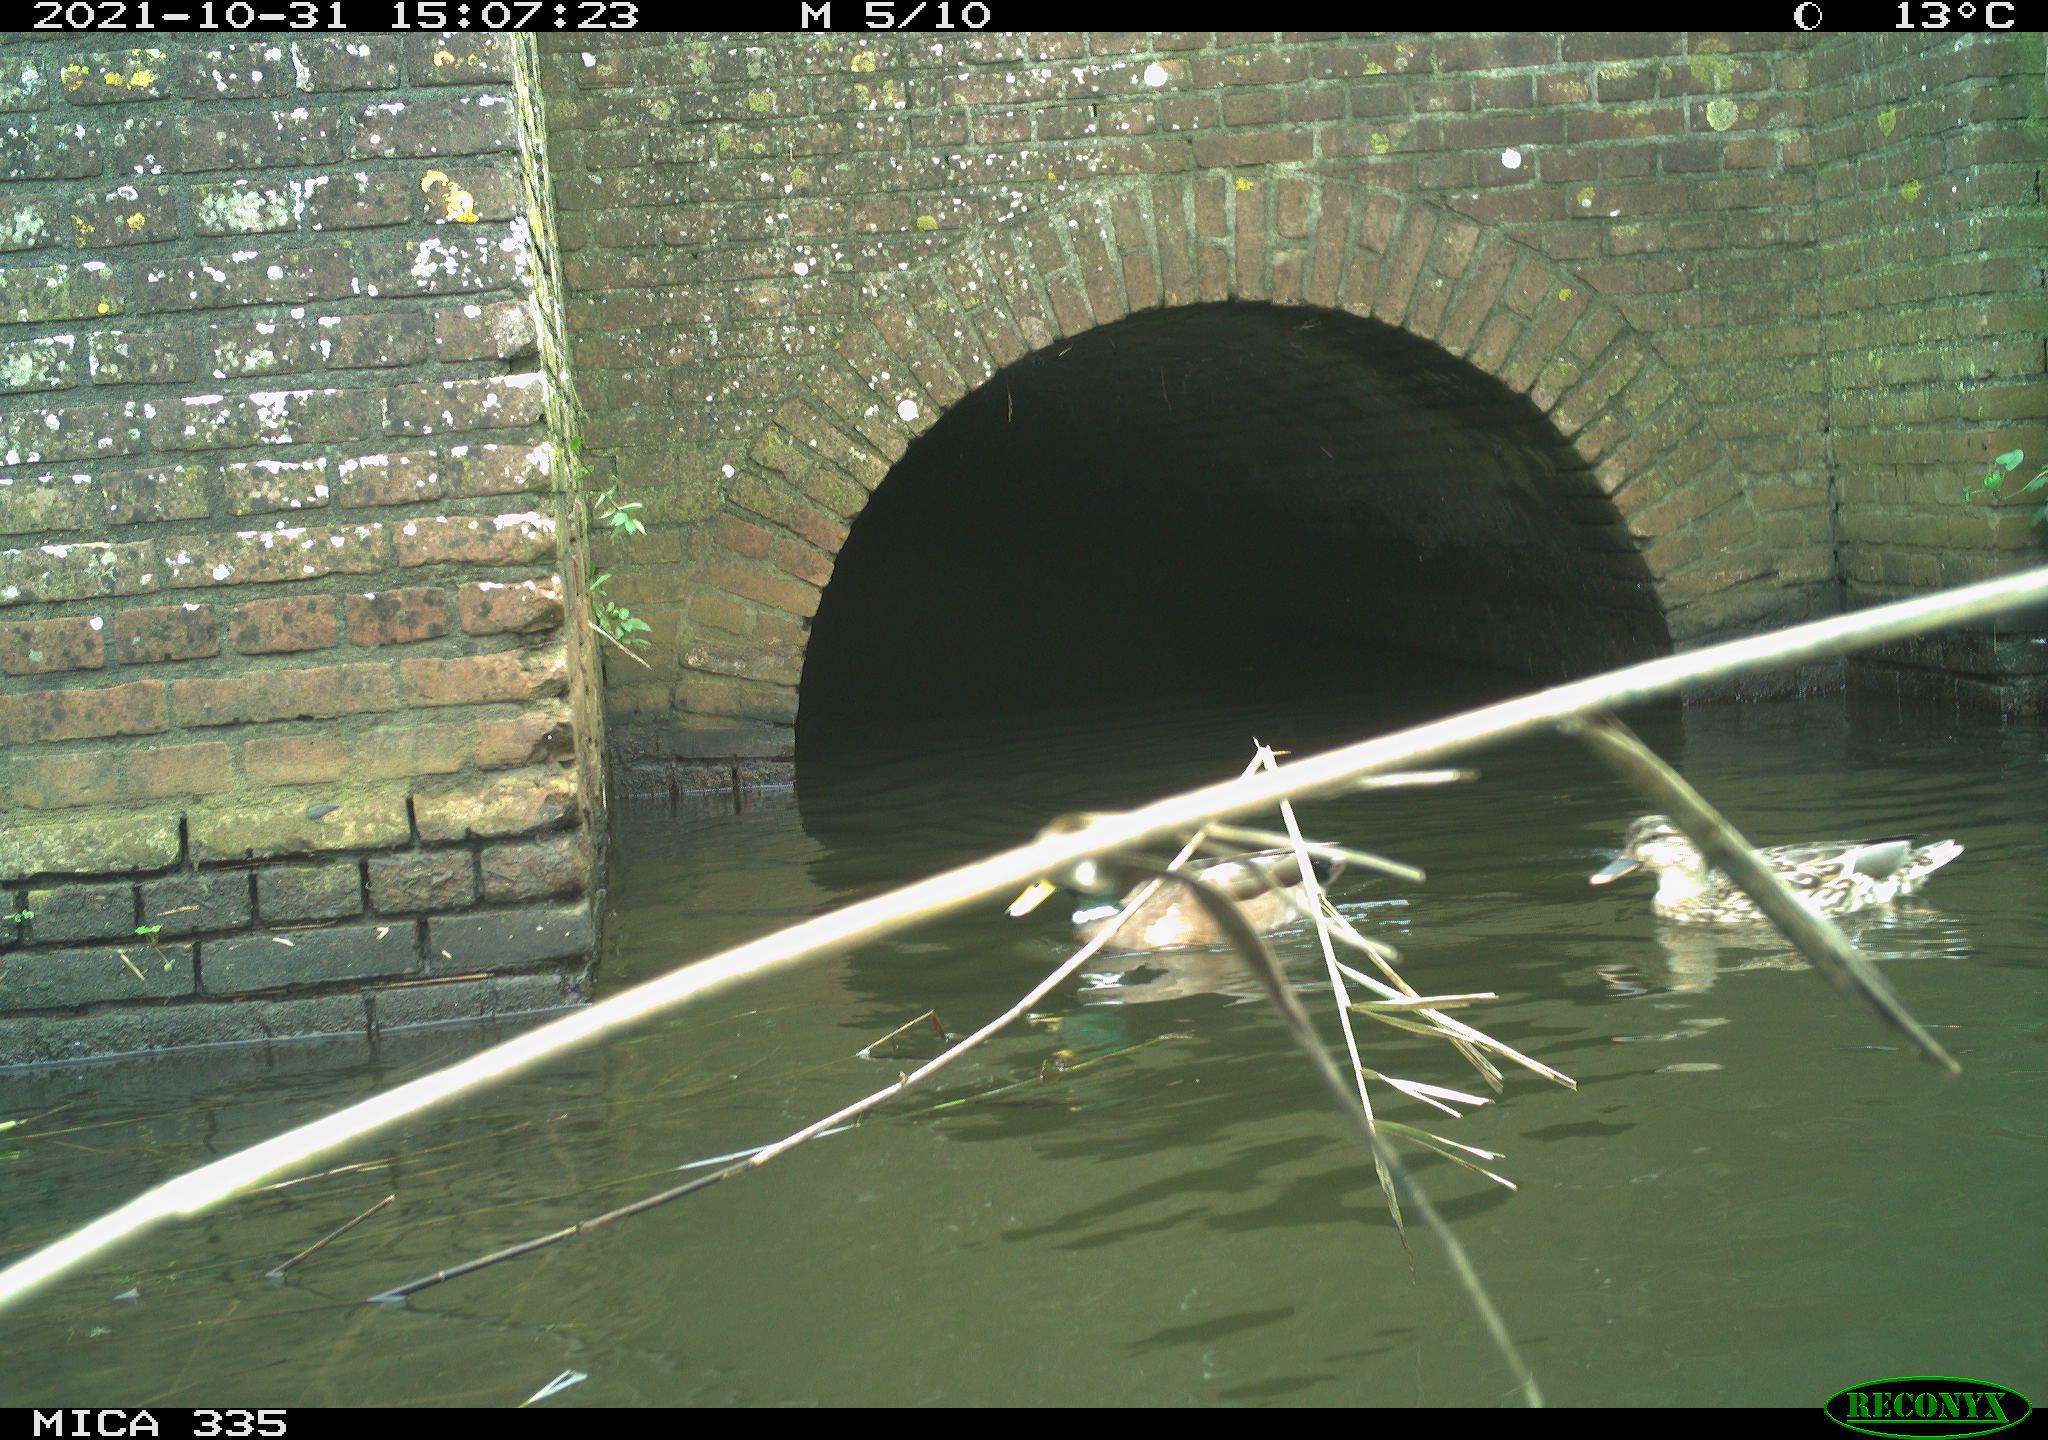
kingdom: Animalia
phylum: Chordata
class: Aves
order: Podicipediformes
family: Podicipedidae
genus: Podiceps
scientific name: Podiceps cristatus
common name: Great crested grebe
